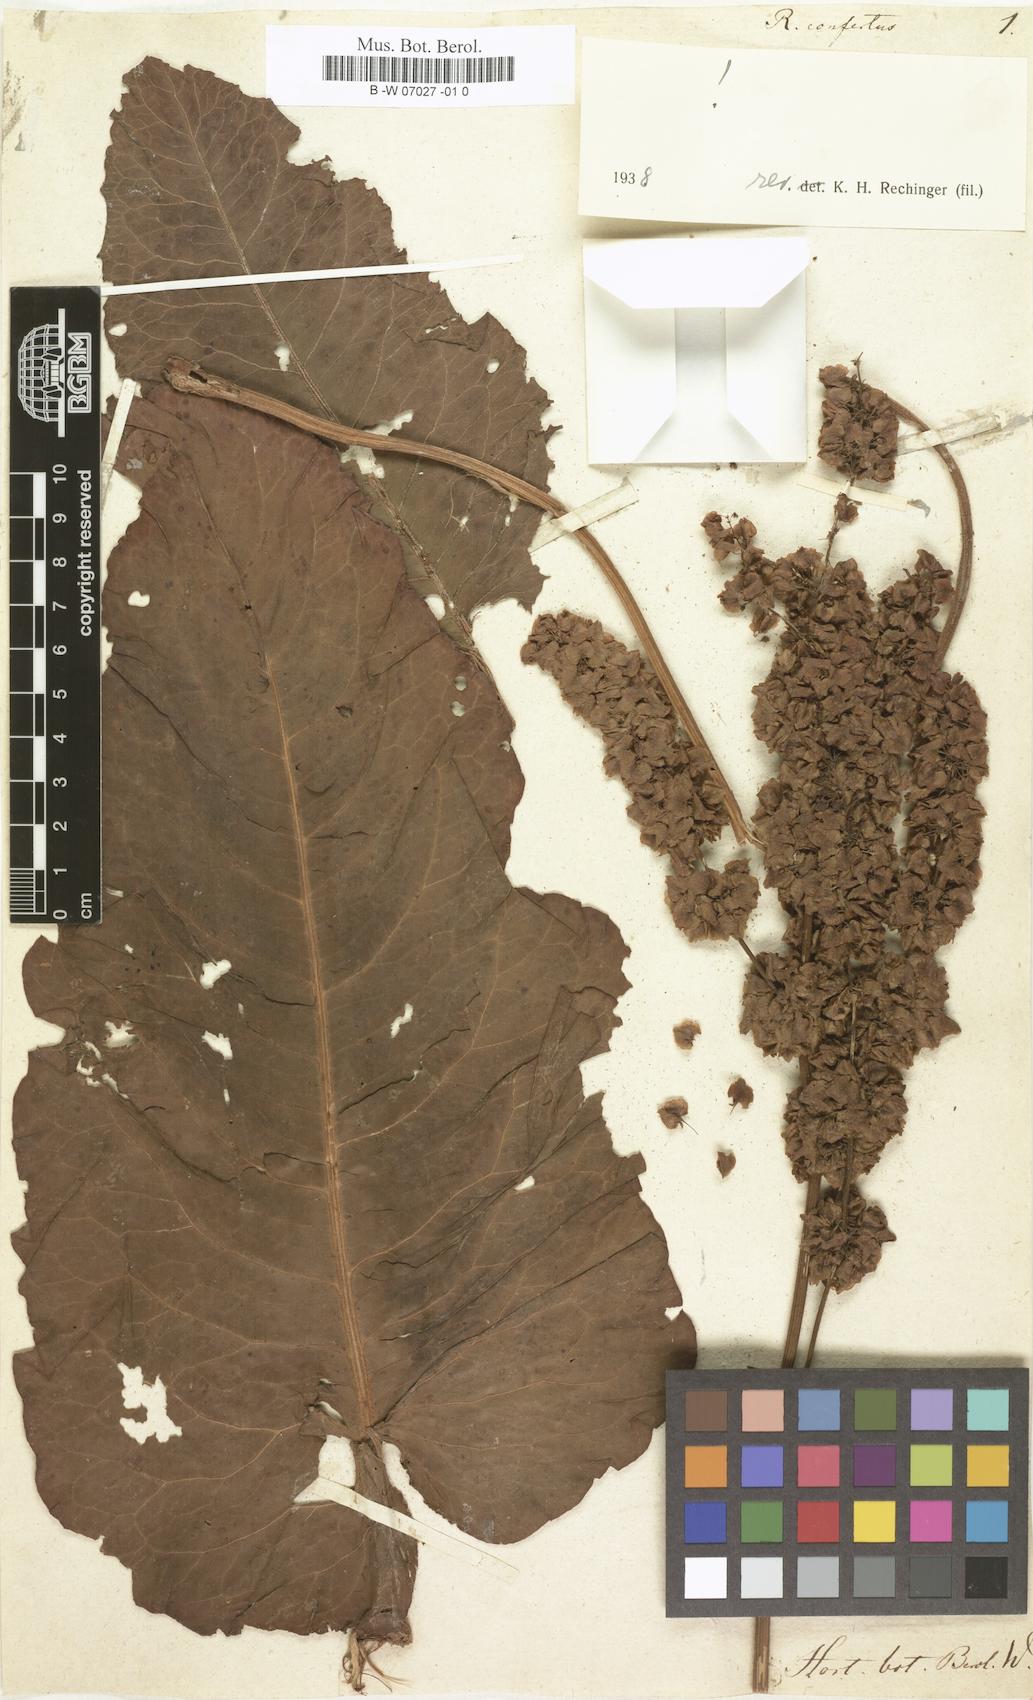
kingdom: Plantae
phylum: Tracheophyta
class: Magnoliopsida
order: Caryophyllales
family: Polygonaceae
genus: Rumex
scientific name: Rumex confertus
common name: Russian dock
